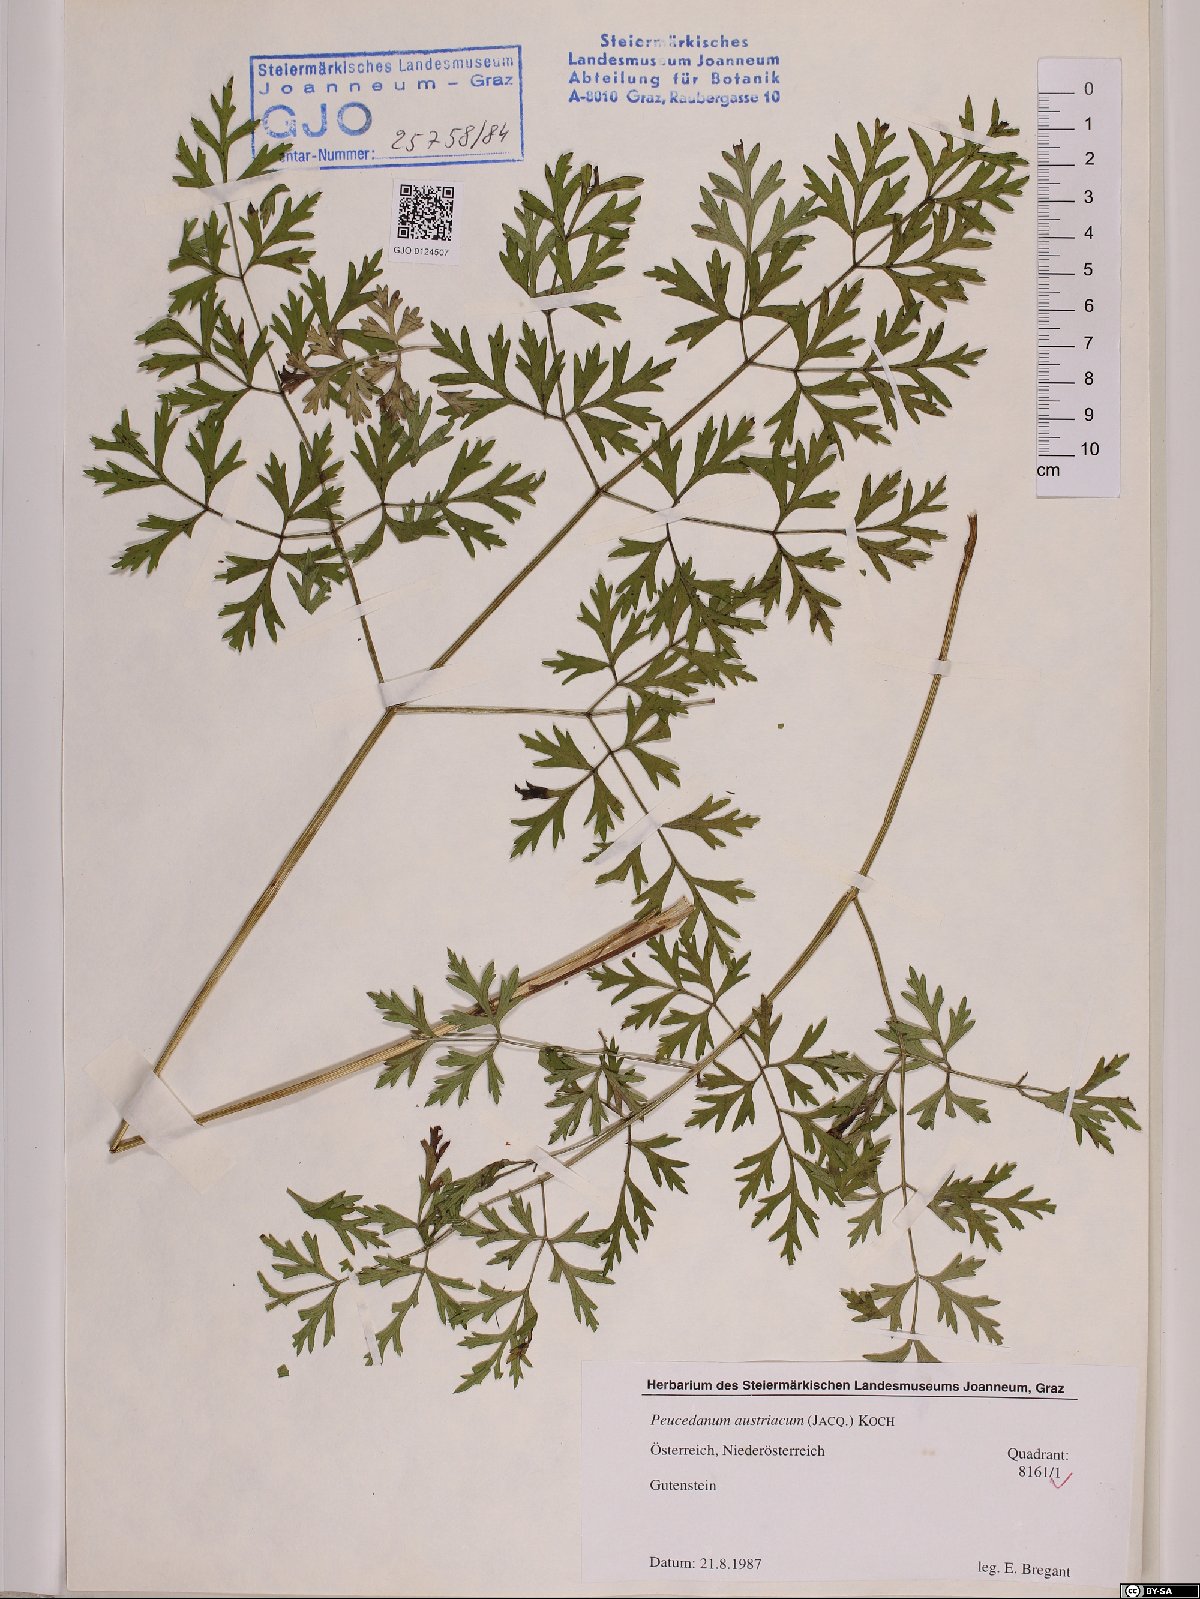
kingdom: Plantae
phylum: Tracheophyta
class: Magnoliopsida
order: Apiales
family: Apiaceae
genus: Peucedanum
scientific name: Peucedanum austriacum
